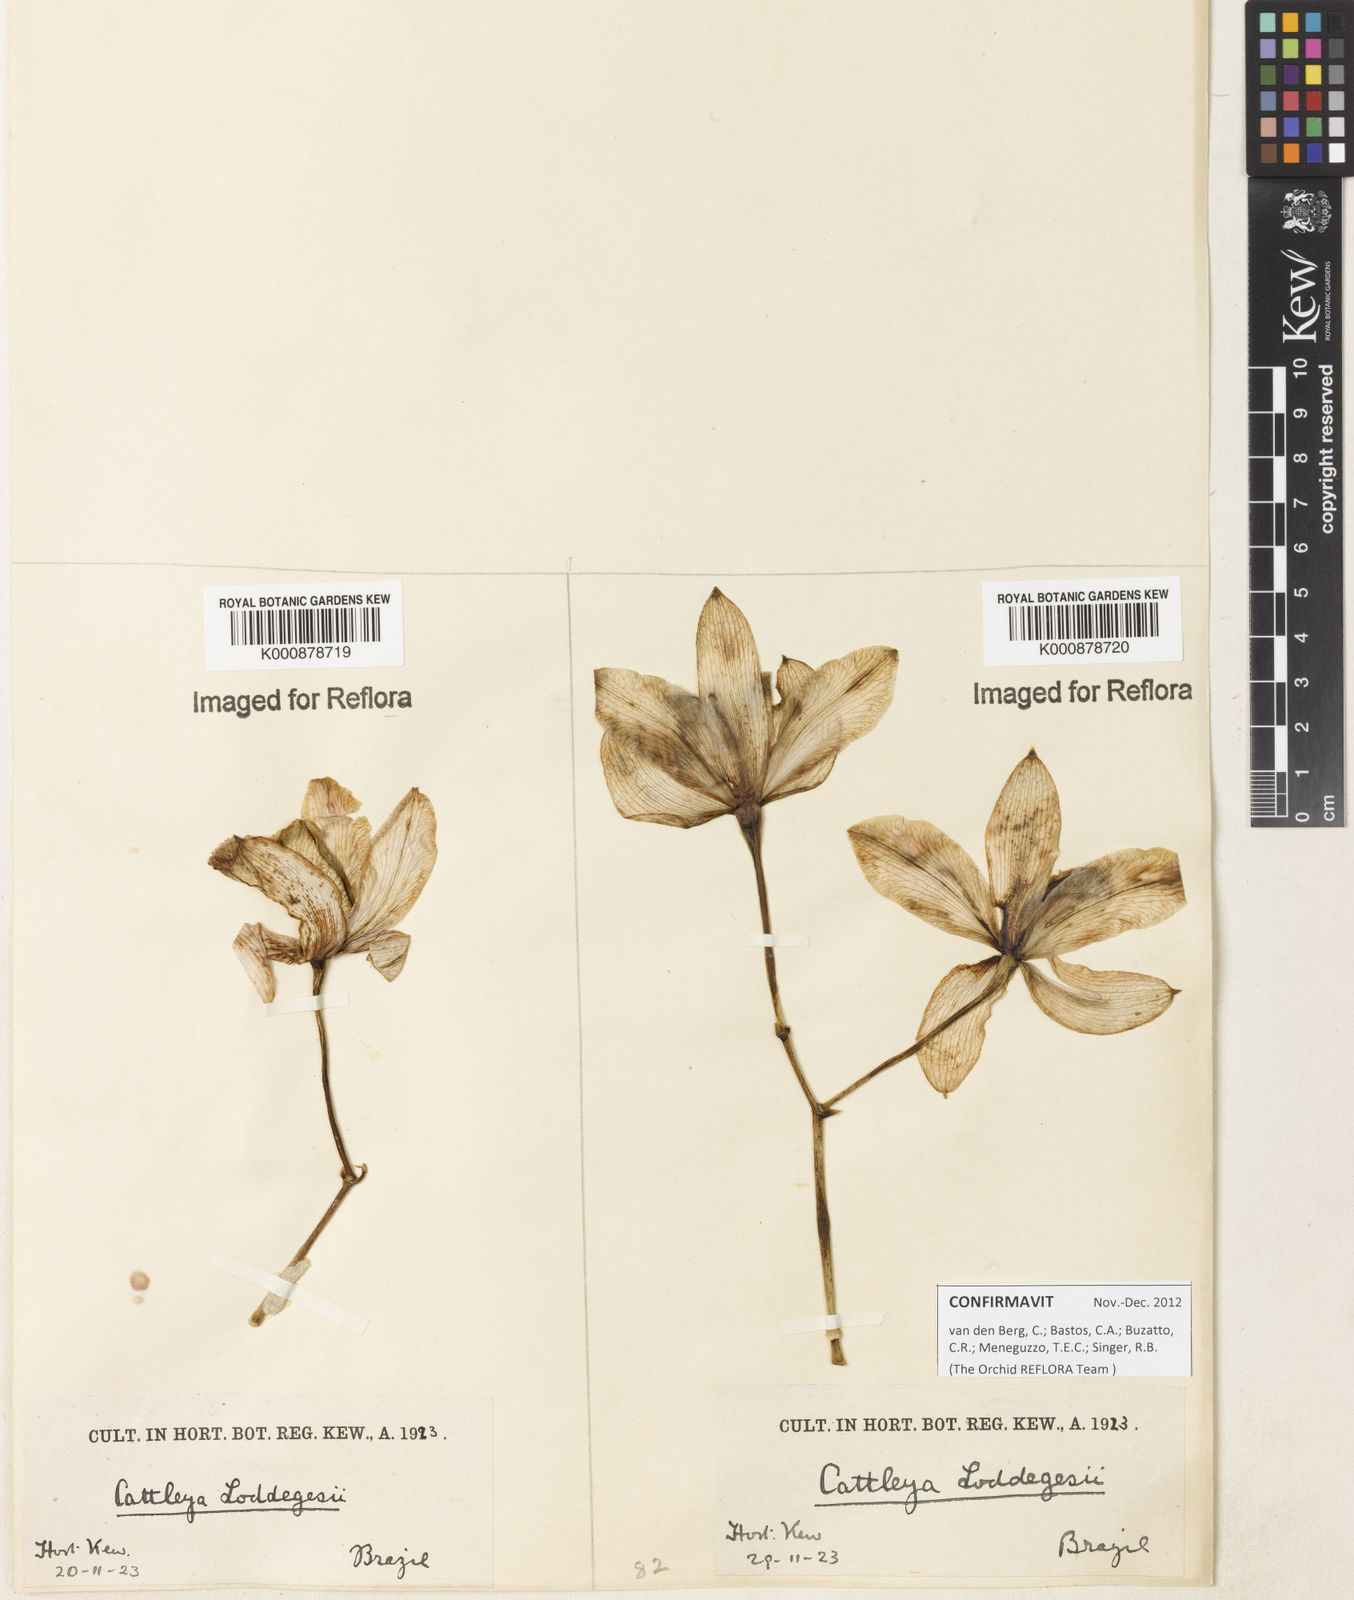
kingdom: Plantae
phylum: Tracheophyta
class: Liliopsida
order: Asparagales
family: Orchidaceae
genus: Cattleya
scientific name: Cattleya loddigesii
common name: Loddiges's cattleya
